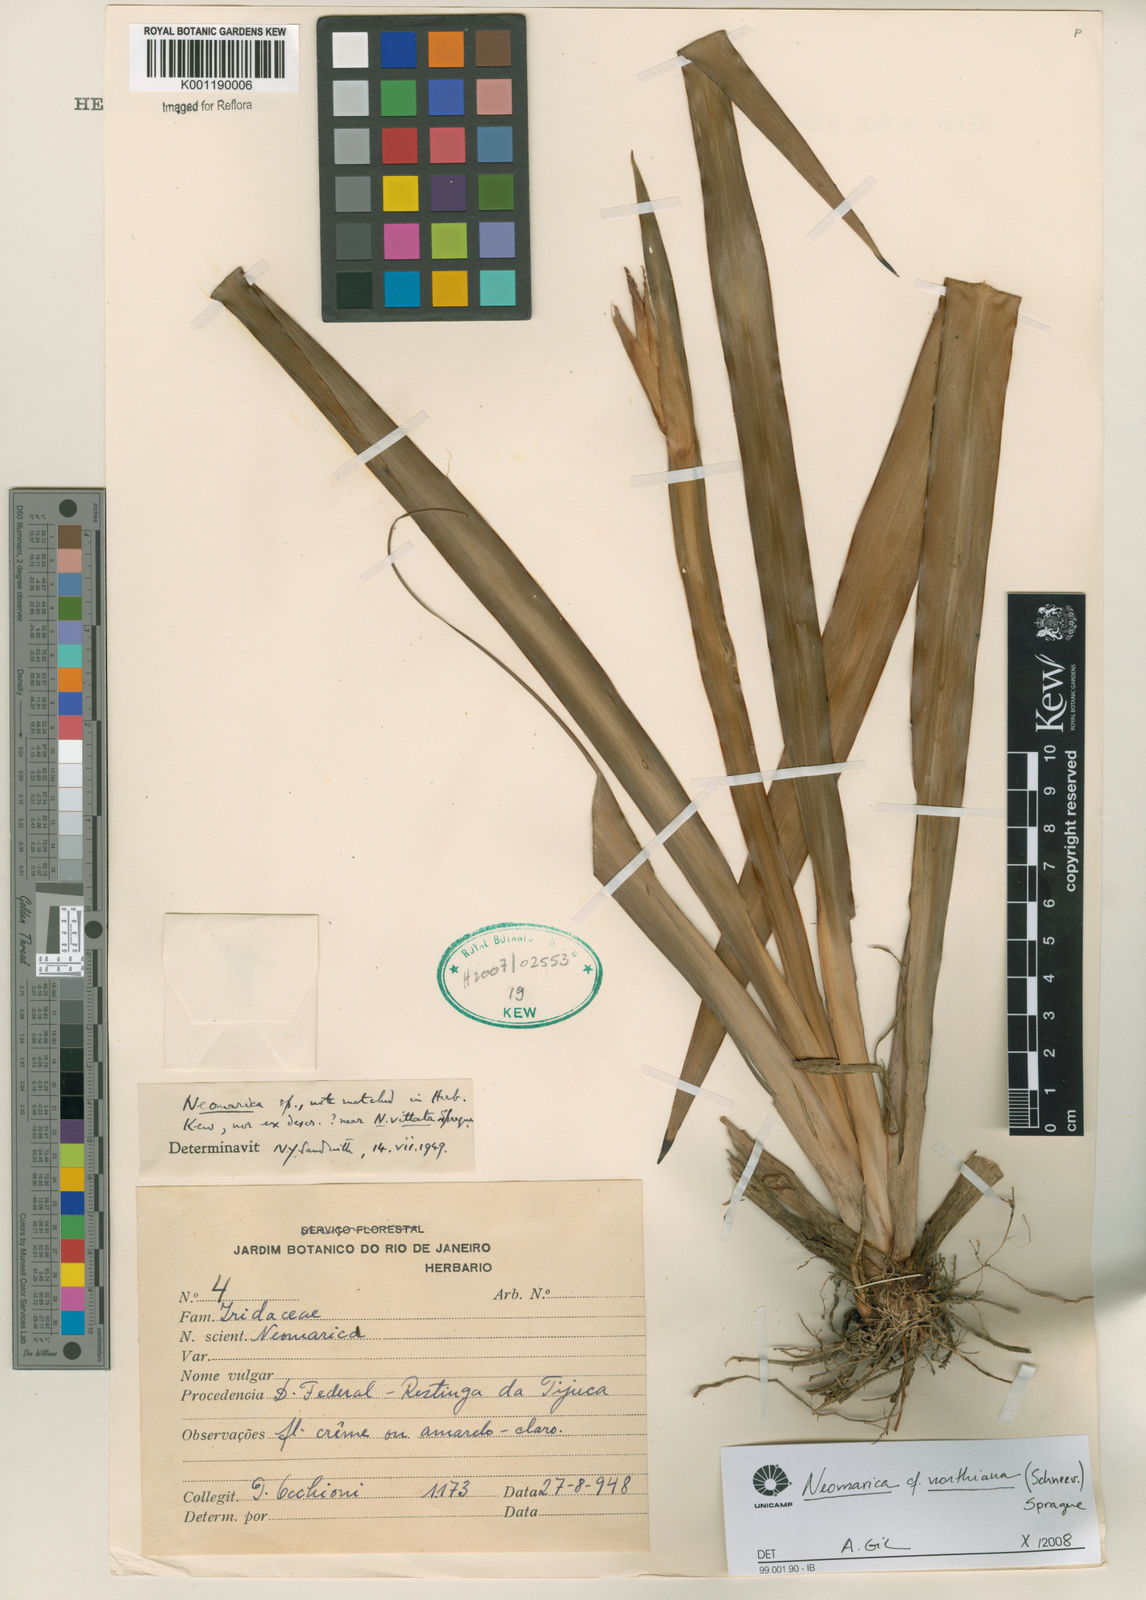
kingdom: Plantae
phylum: Tracheophyta
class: Liliopsida
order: Asparagales
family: Iridaceae
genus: Trimezia
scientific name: Trimezia northiana
